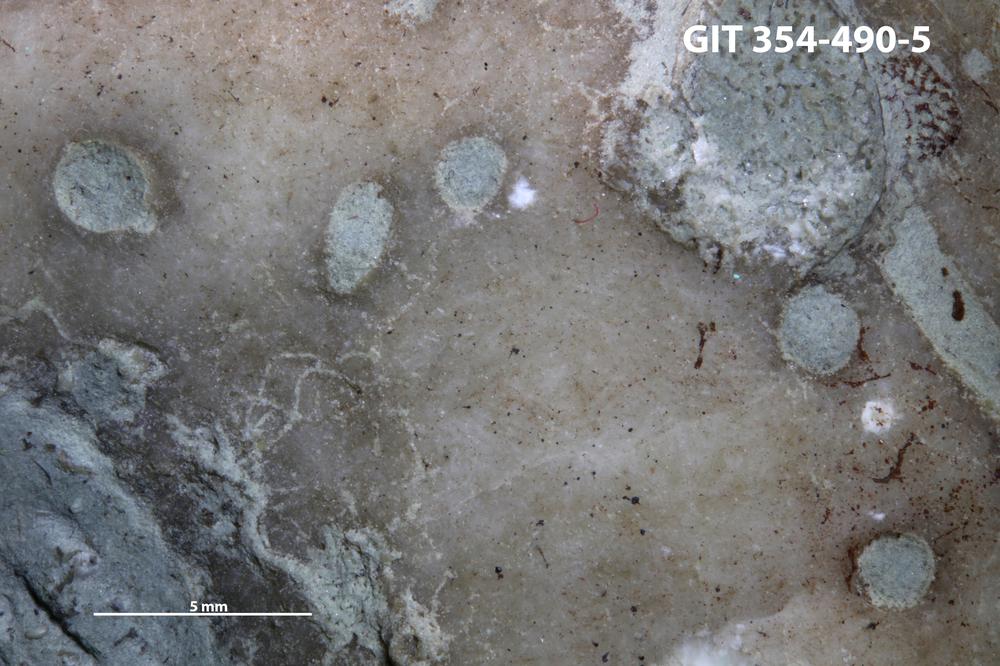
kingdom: Animalia
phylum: Sipuncula
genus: Trypanites
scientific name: Trypanites
